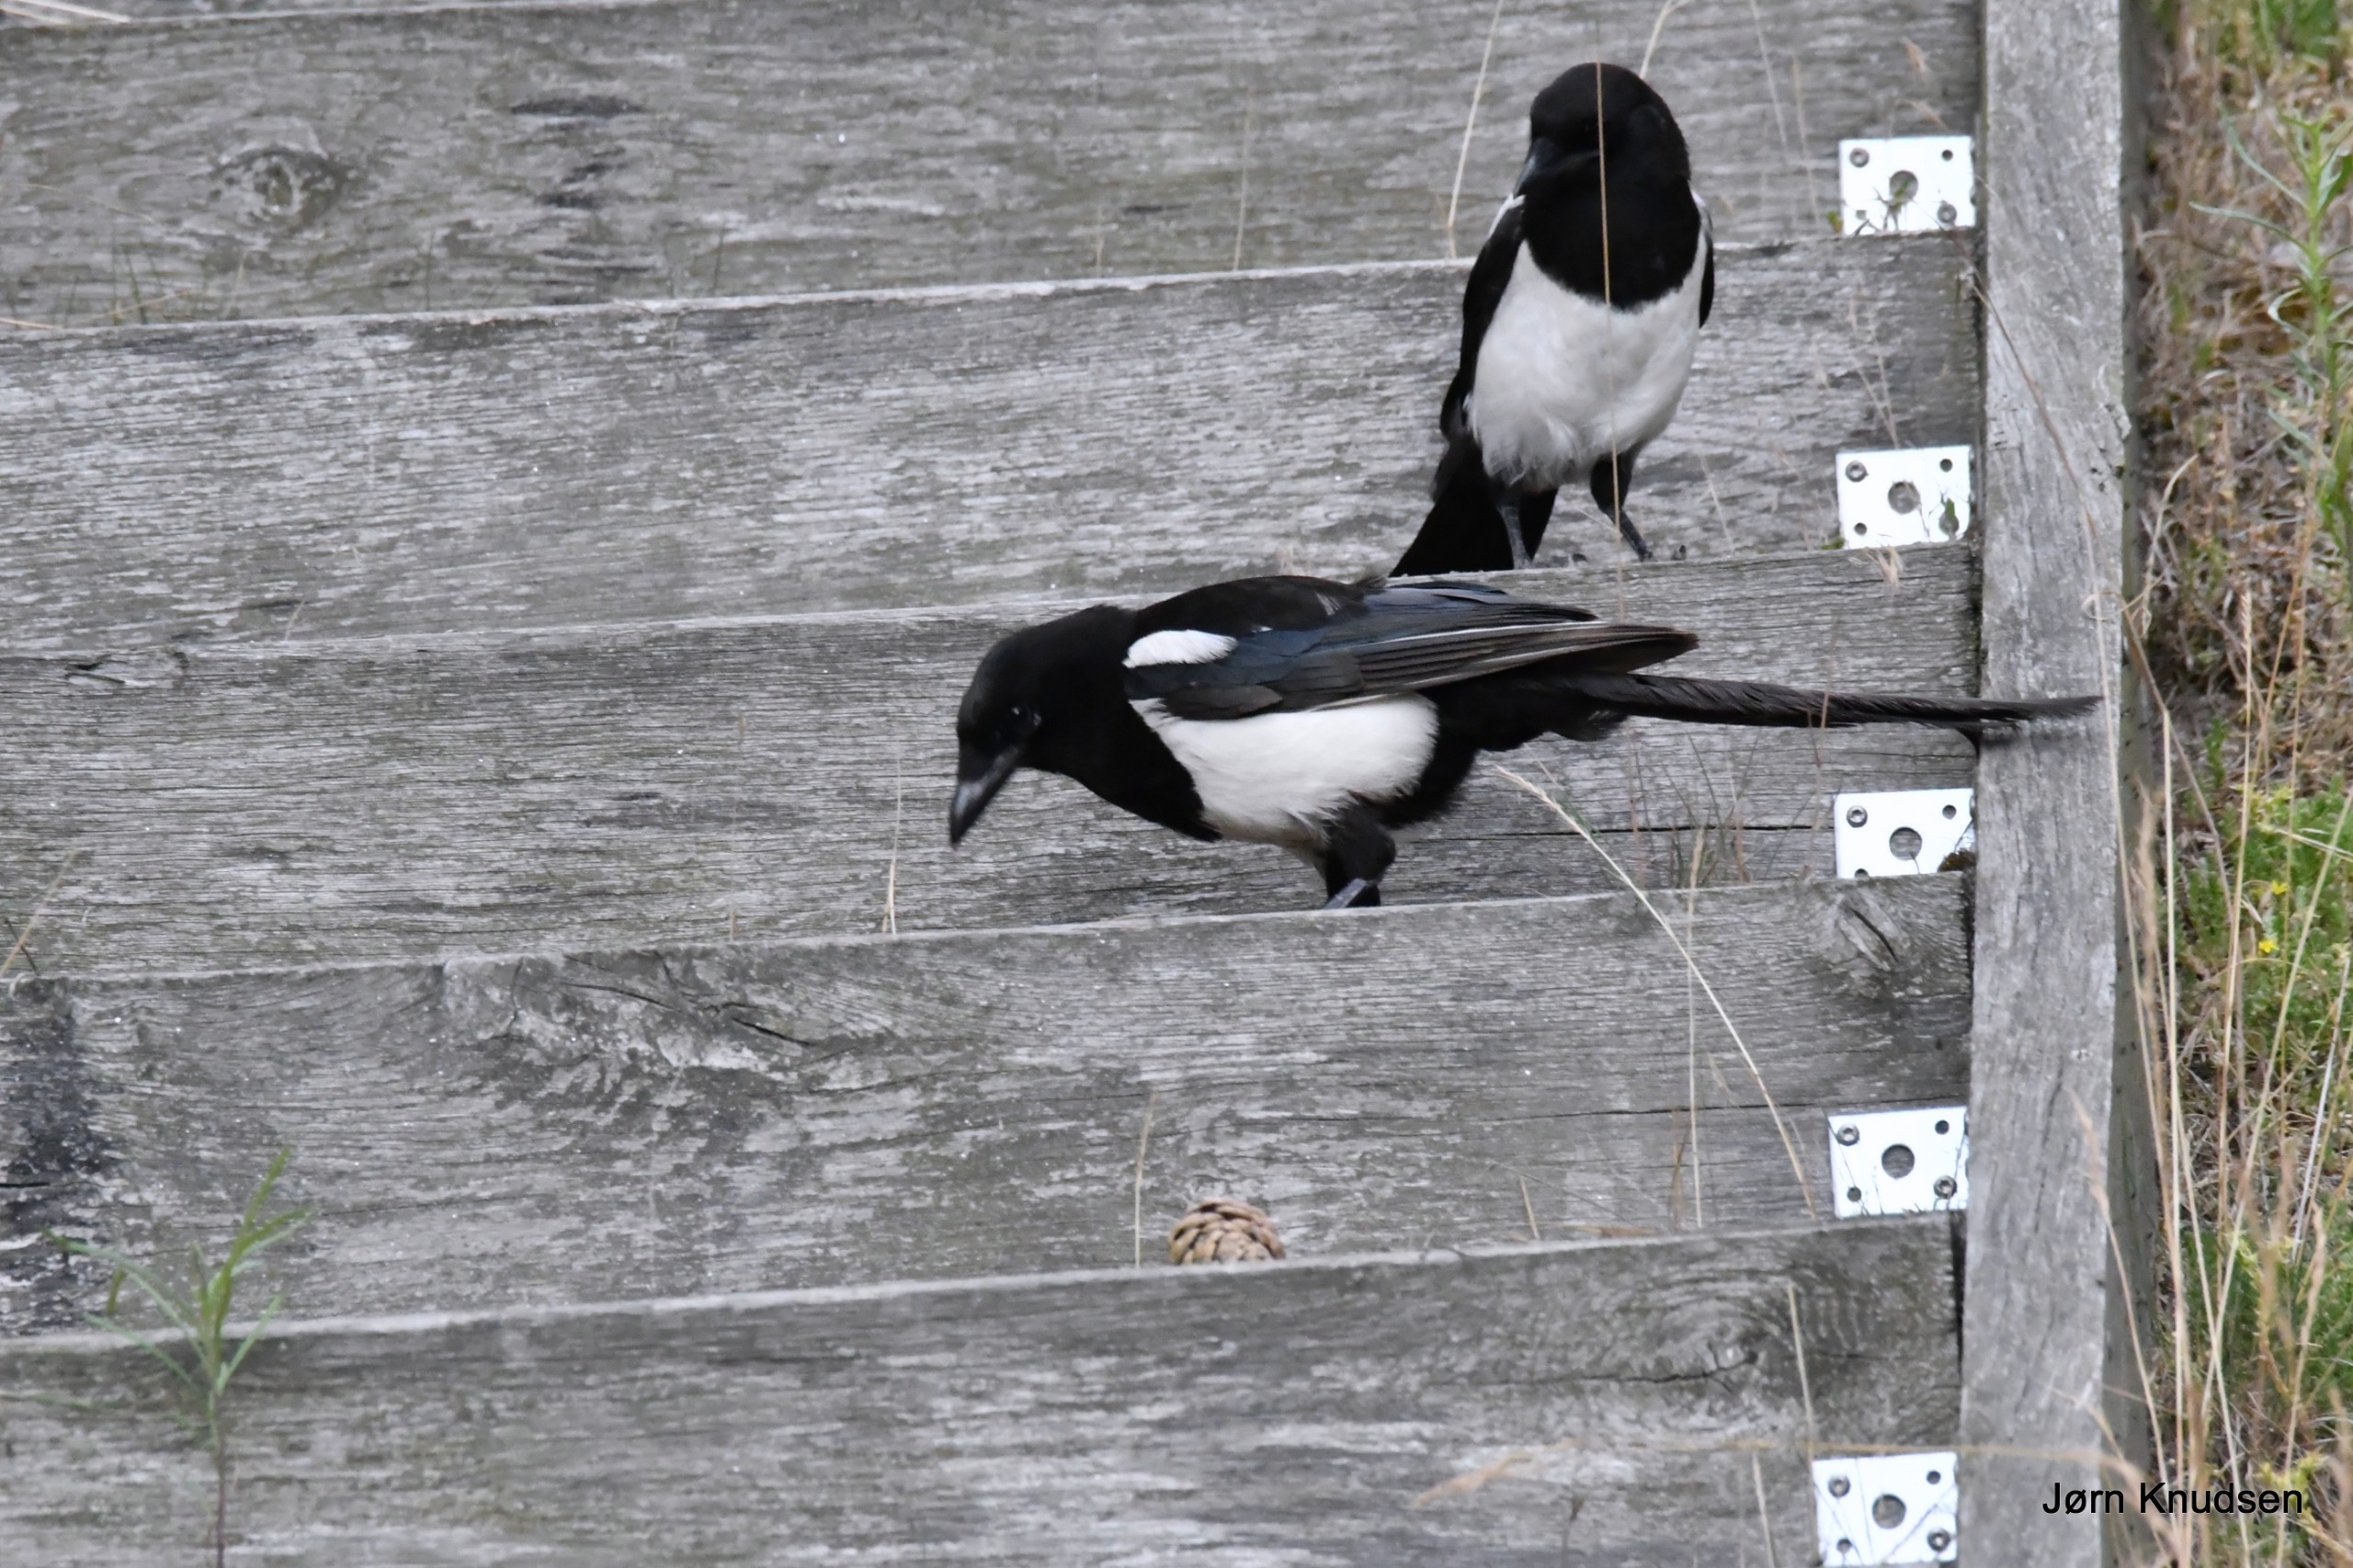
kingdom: Animalia
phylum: Chordata
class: Aves
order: Passeriformes
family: Corvidae
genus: Pica
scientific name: Pica pica
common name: Husskade
